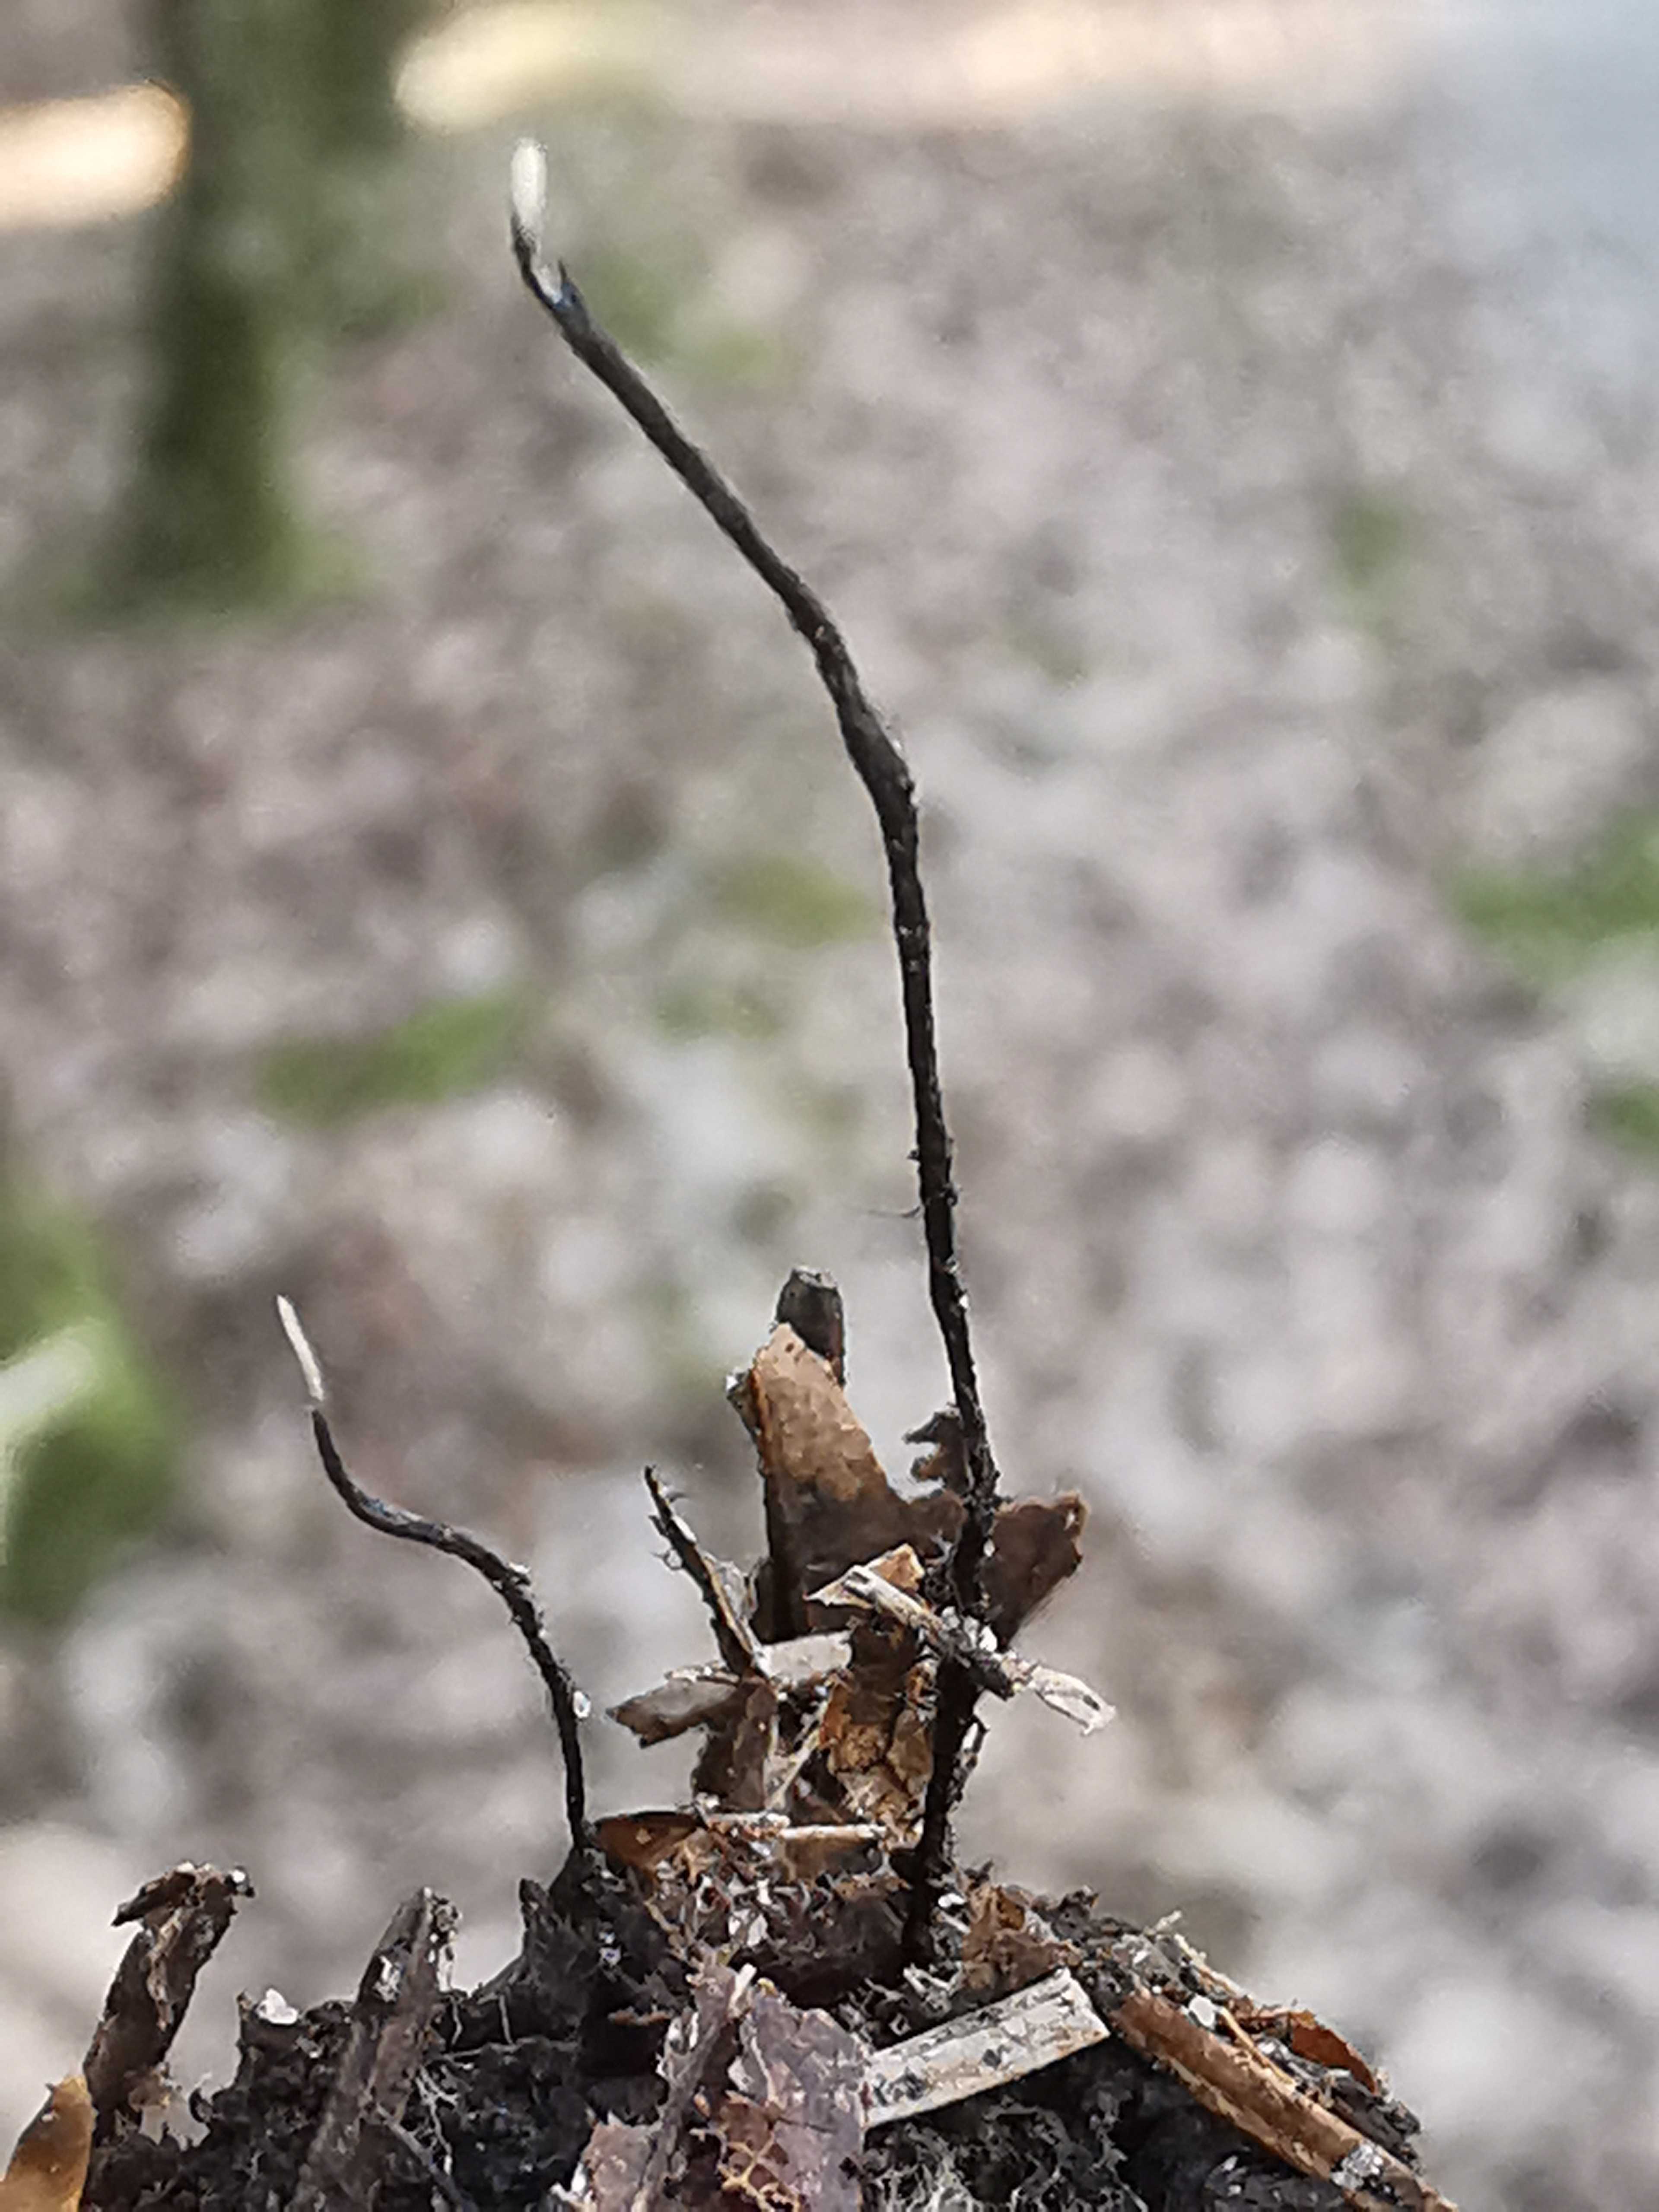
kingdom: Fungi
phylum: Ascomycota
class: Sordariomycetes
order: Xylariales
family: Xylariaceae
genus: Xylaria
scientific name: Xylaria carpophila
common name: bogskål-stødsvamp
